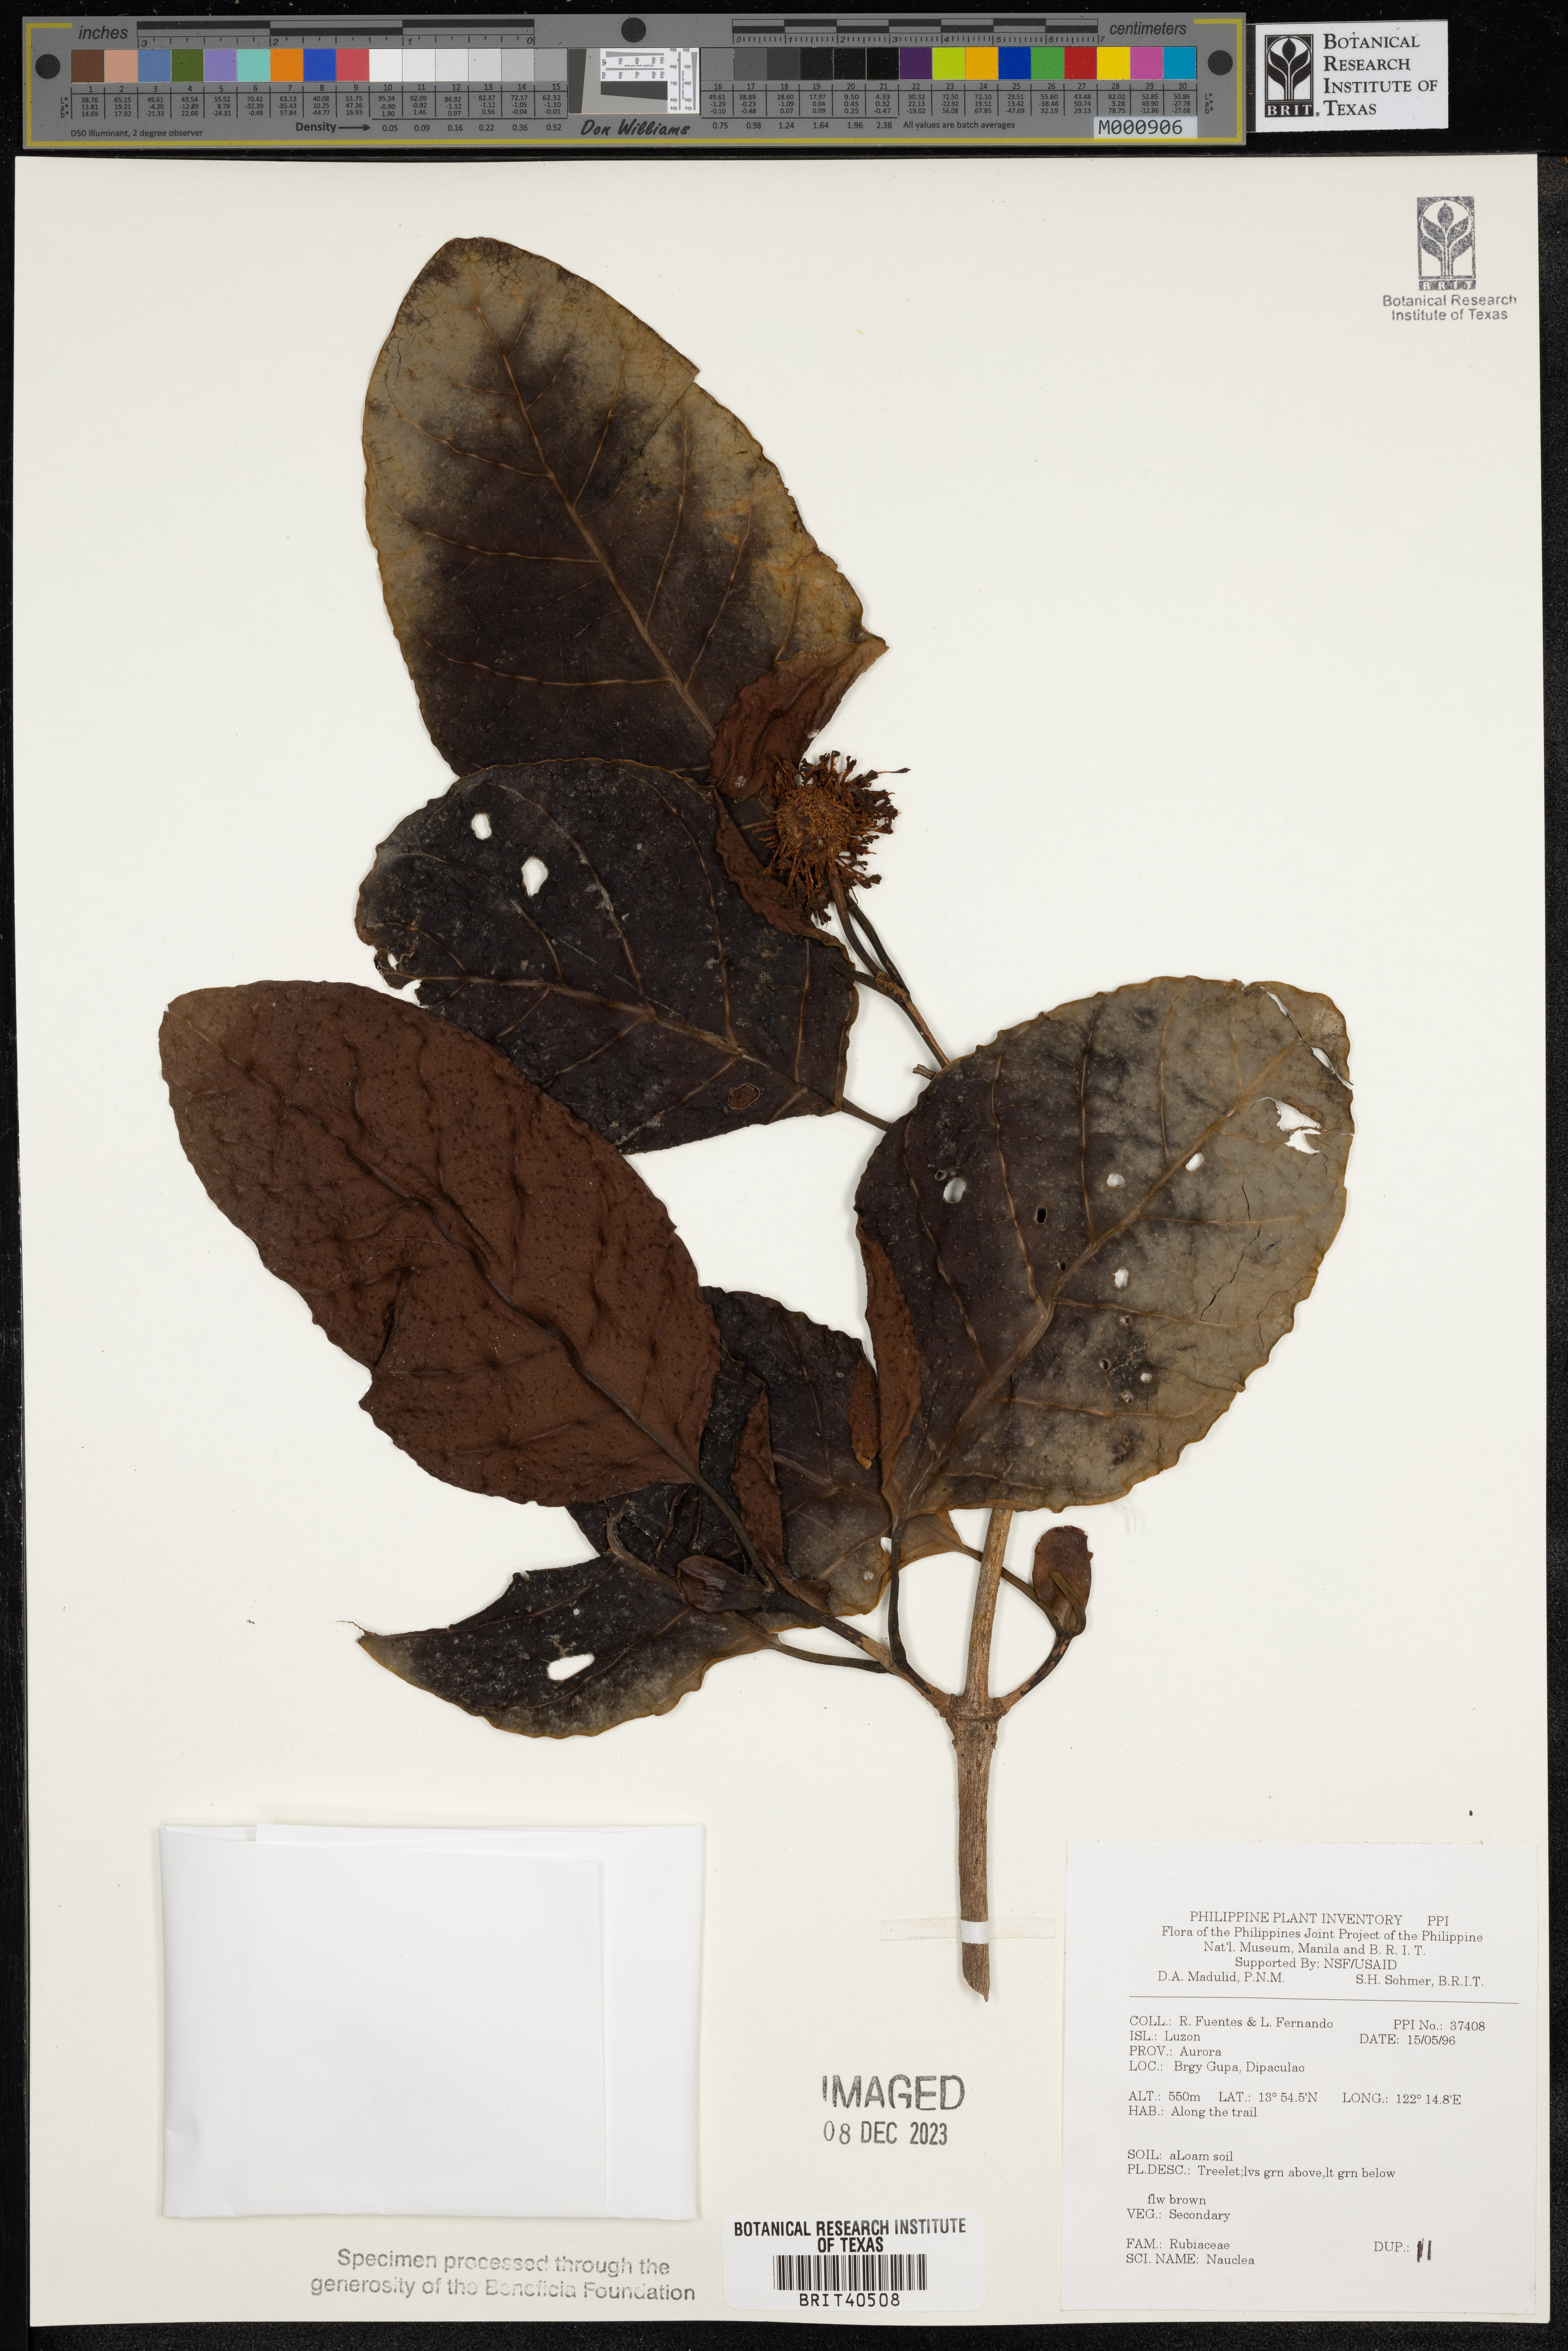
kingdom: Plantae
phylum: Tracheophyta
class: Magnoliopsida
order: Gentianales
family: Rubiaceae
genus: Nauclea
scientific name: Nauclea
